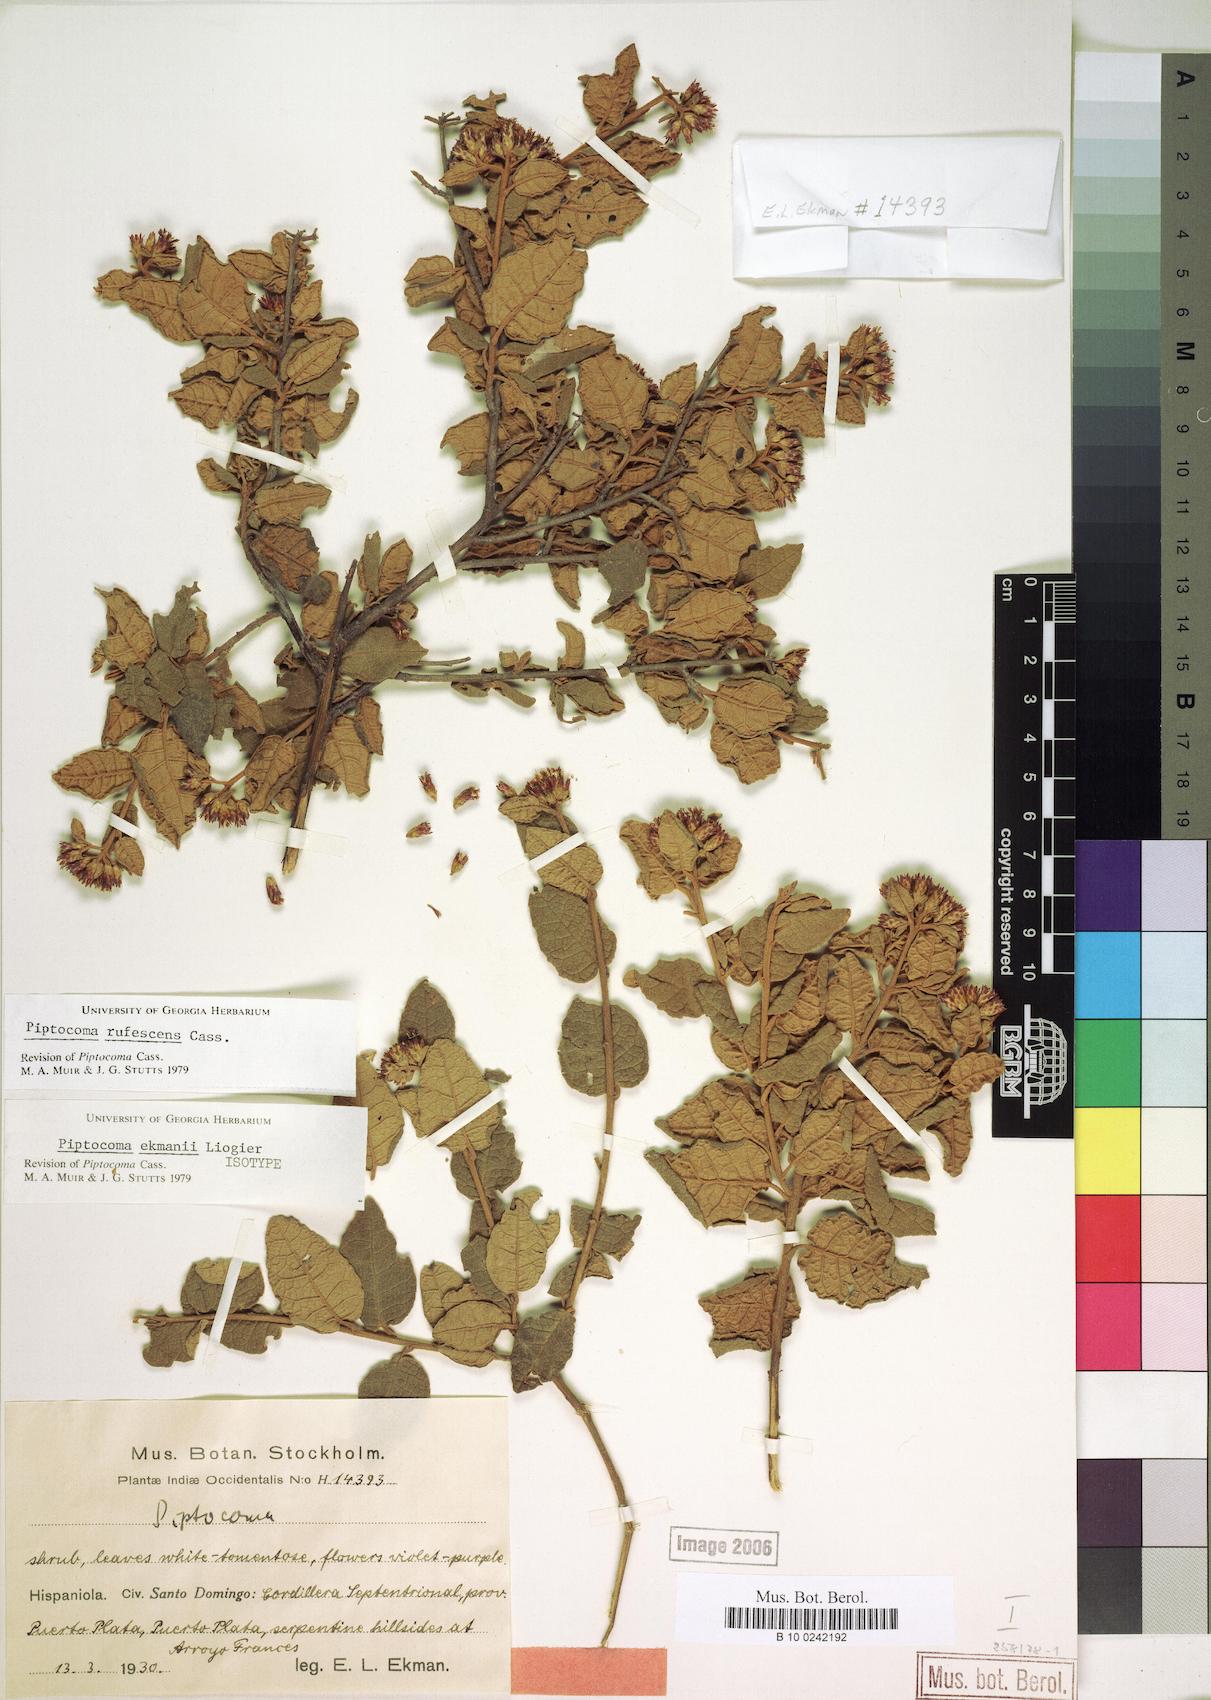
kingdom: Plantae
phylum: Tracheophyta
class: Magnoliopsida
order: Asterales
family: Asteraceae
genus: Piptocoma
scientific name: Piptocoma rufescens
